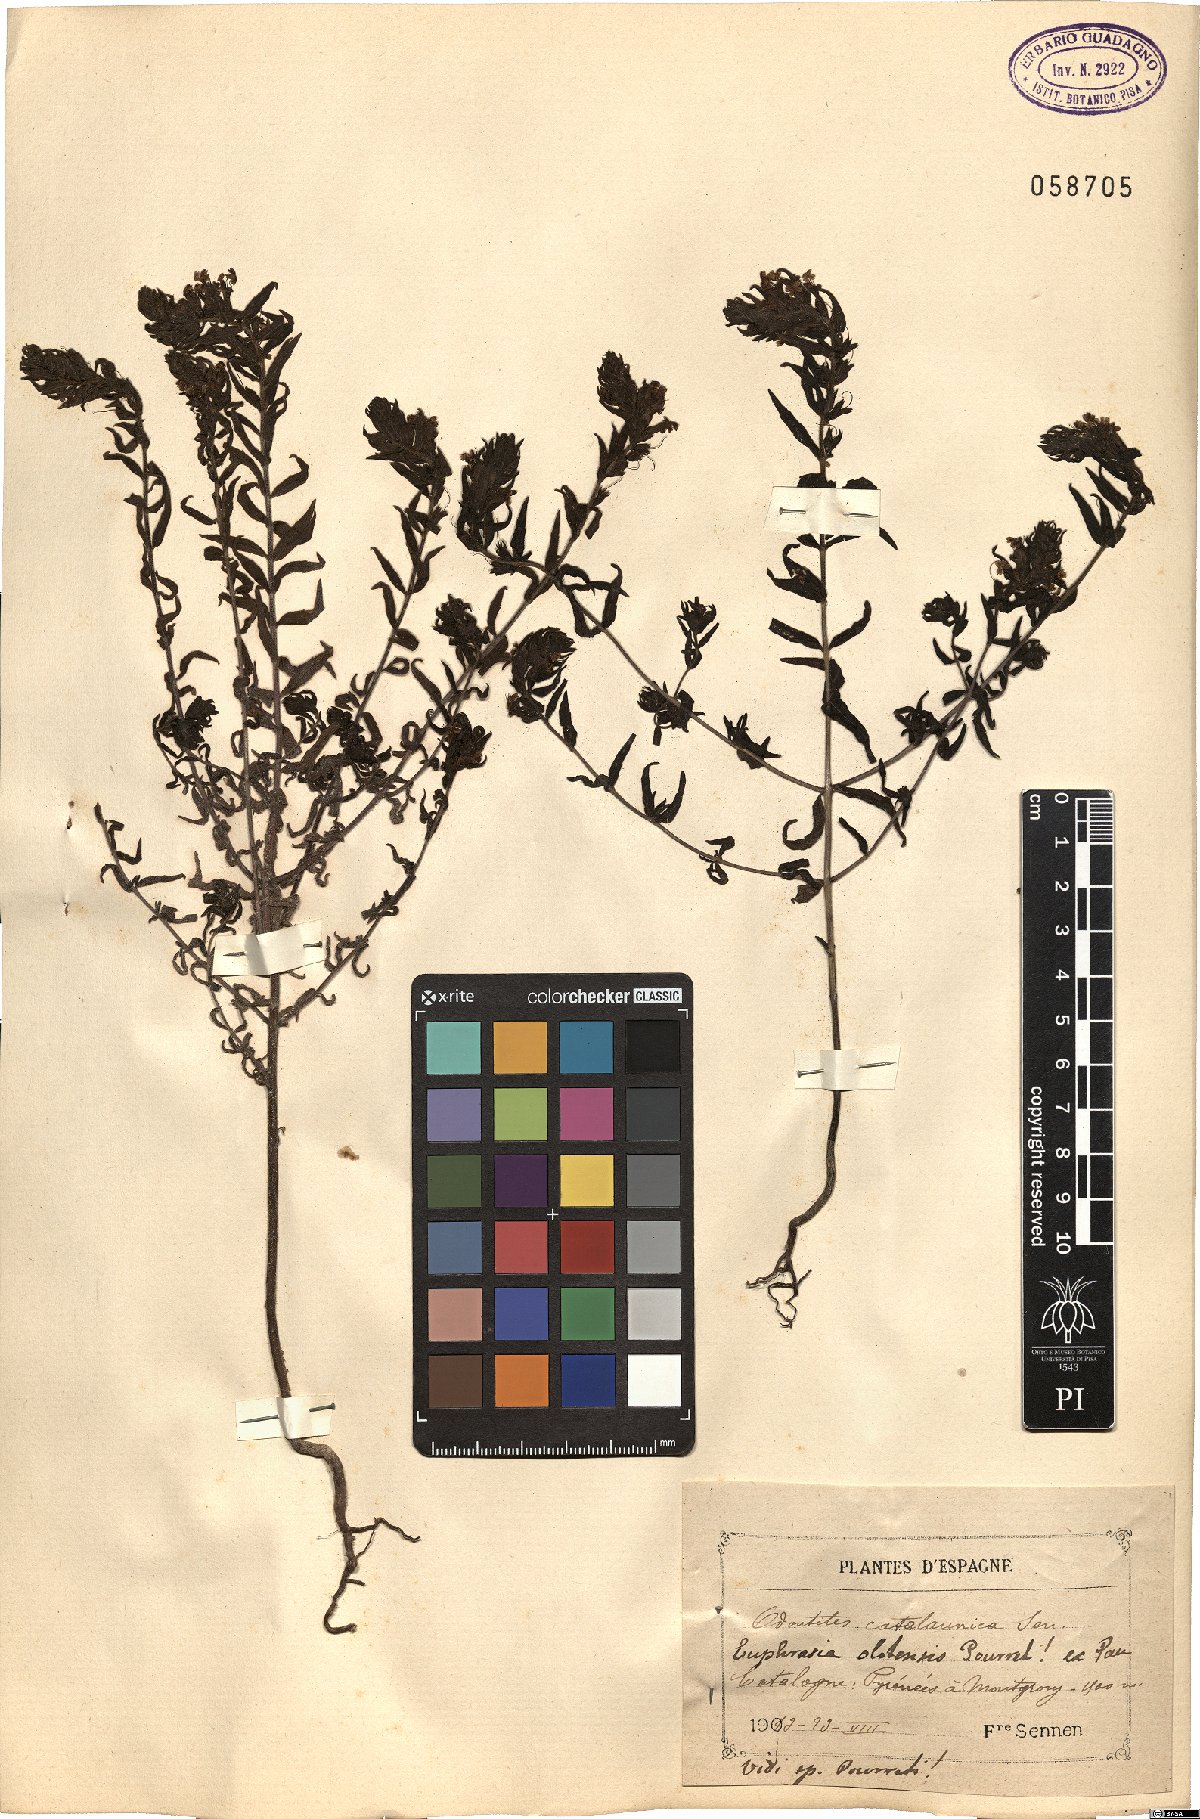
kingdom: Plantae
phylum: Tracheophyta
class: Magnoliopsida
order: Lamiales
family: Orobanchaceae
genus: Odontites
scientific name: Odontites cebennensis
